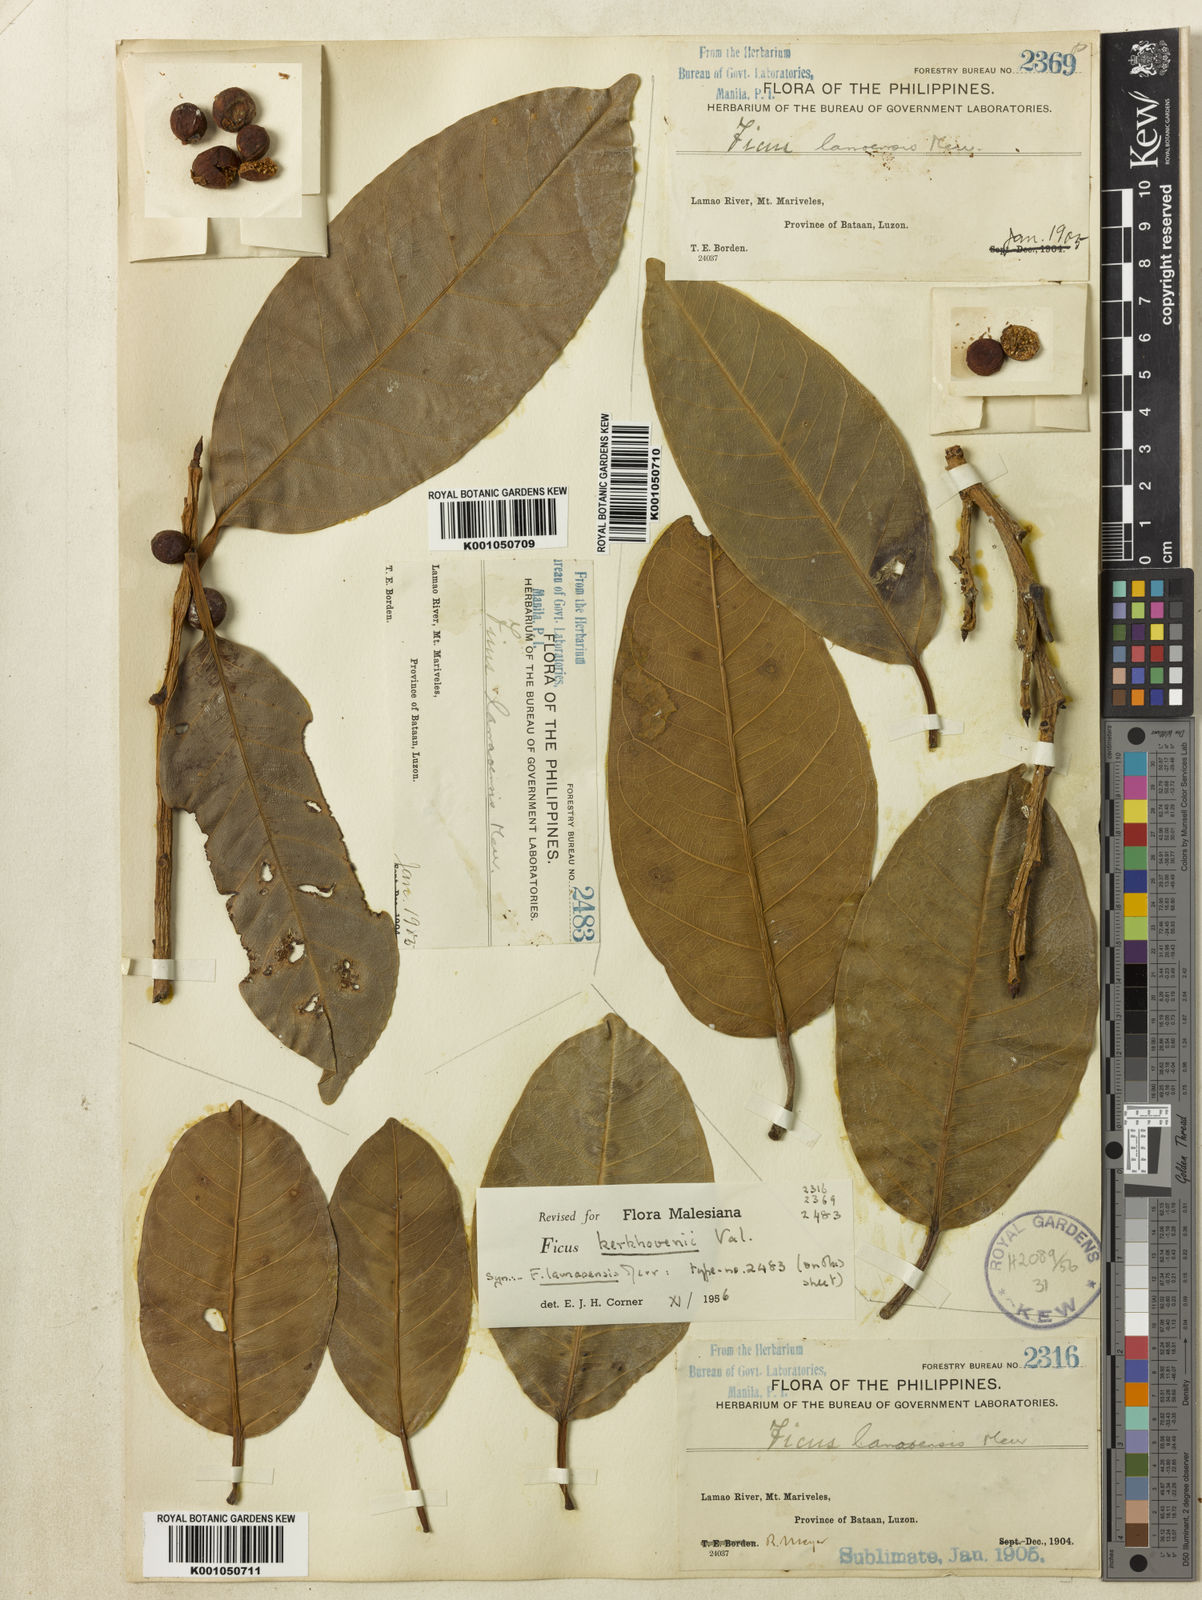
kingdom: Plantae
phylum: Tracheophyta
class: Magnoliopsida
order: Rosales
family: Moraceae
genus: Ficus
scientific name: Ficus kerkhovenii
